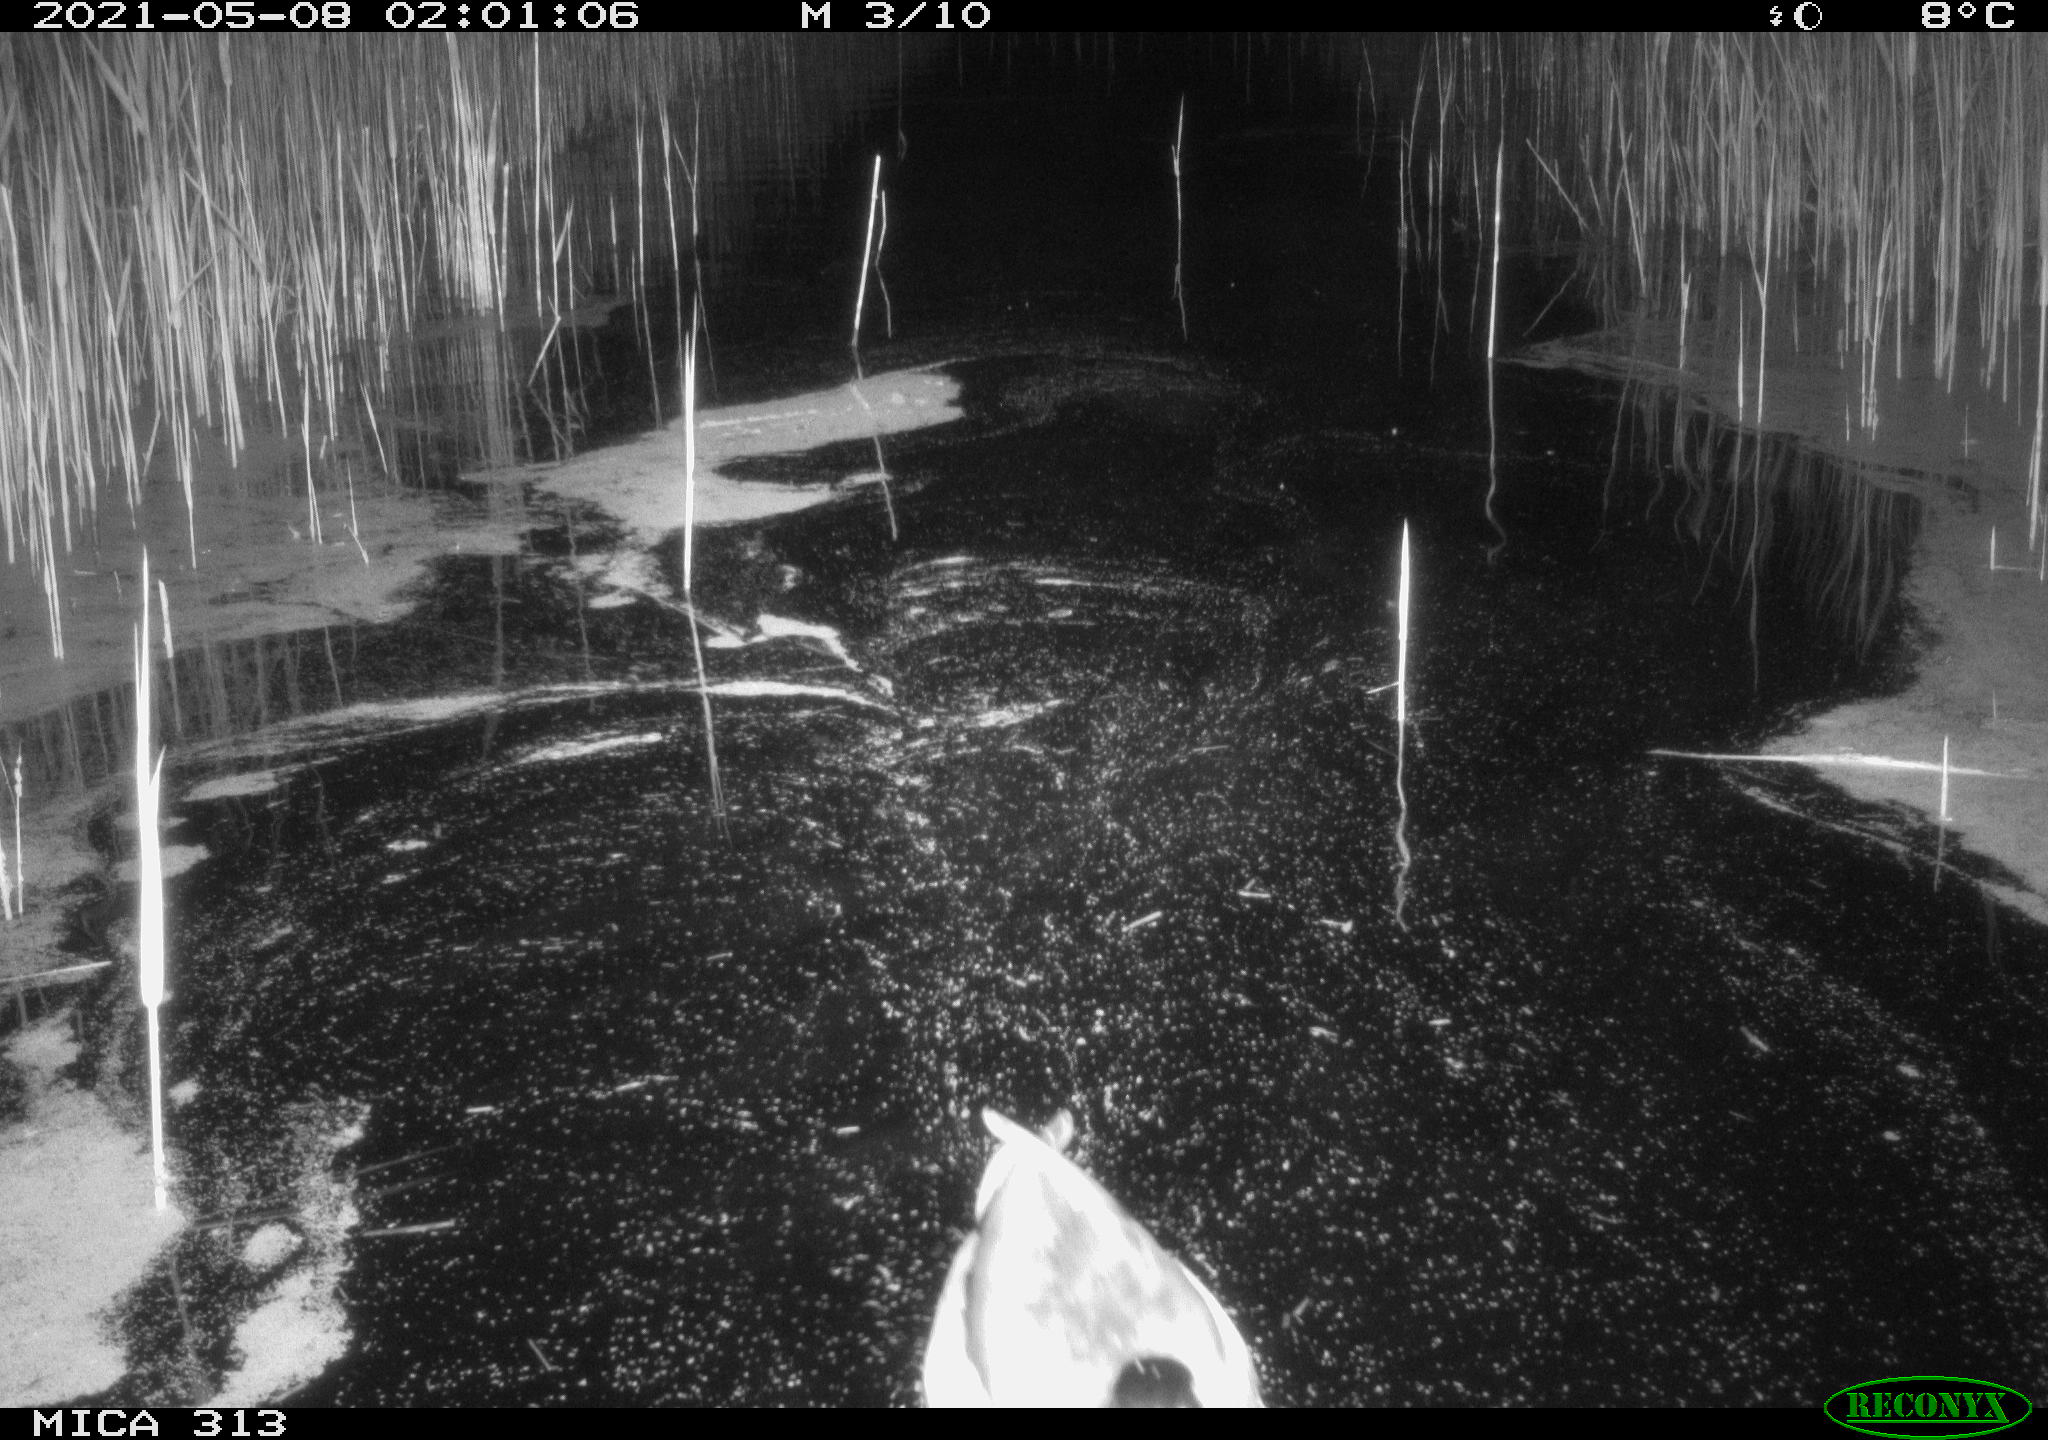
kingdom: Animalia
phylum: Chordata
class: Aves
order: Anseriformes
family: Anatidae
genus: Anas
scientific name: Anas platyrhynchos
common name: Mallard
